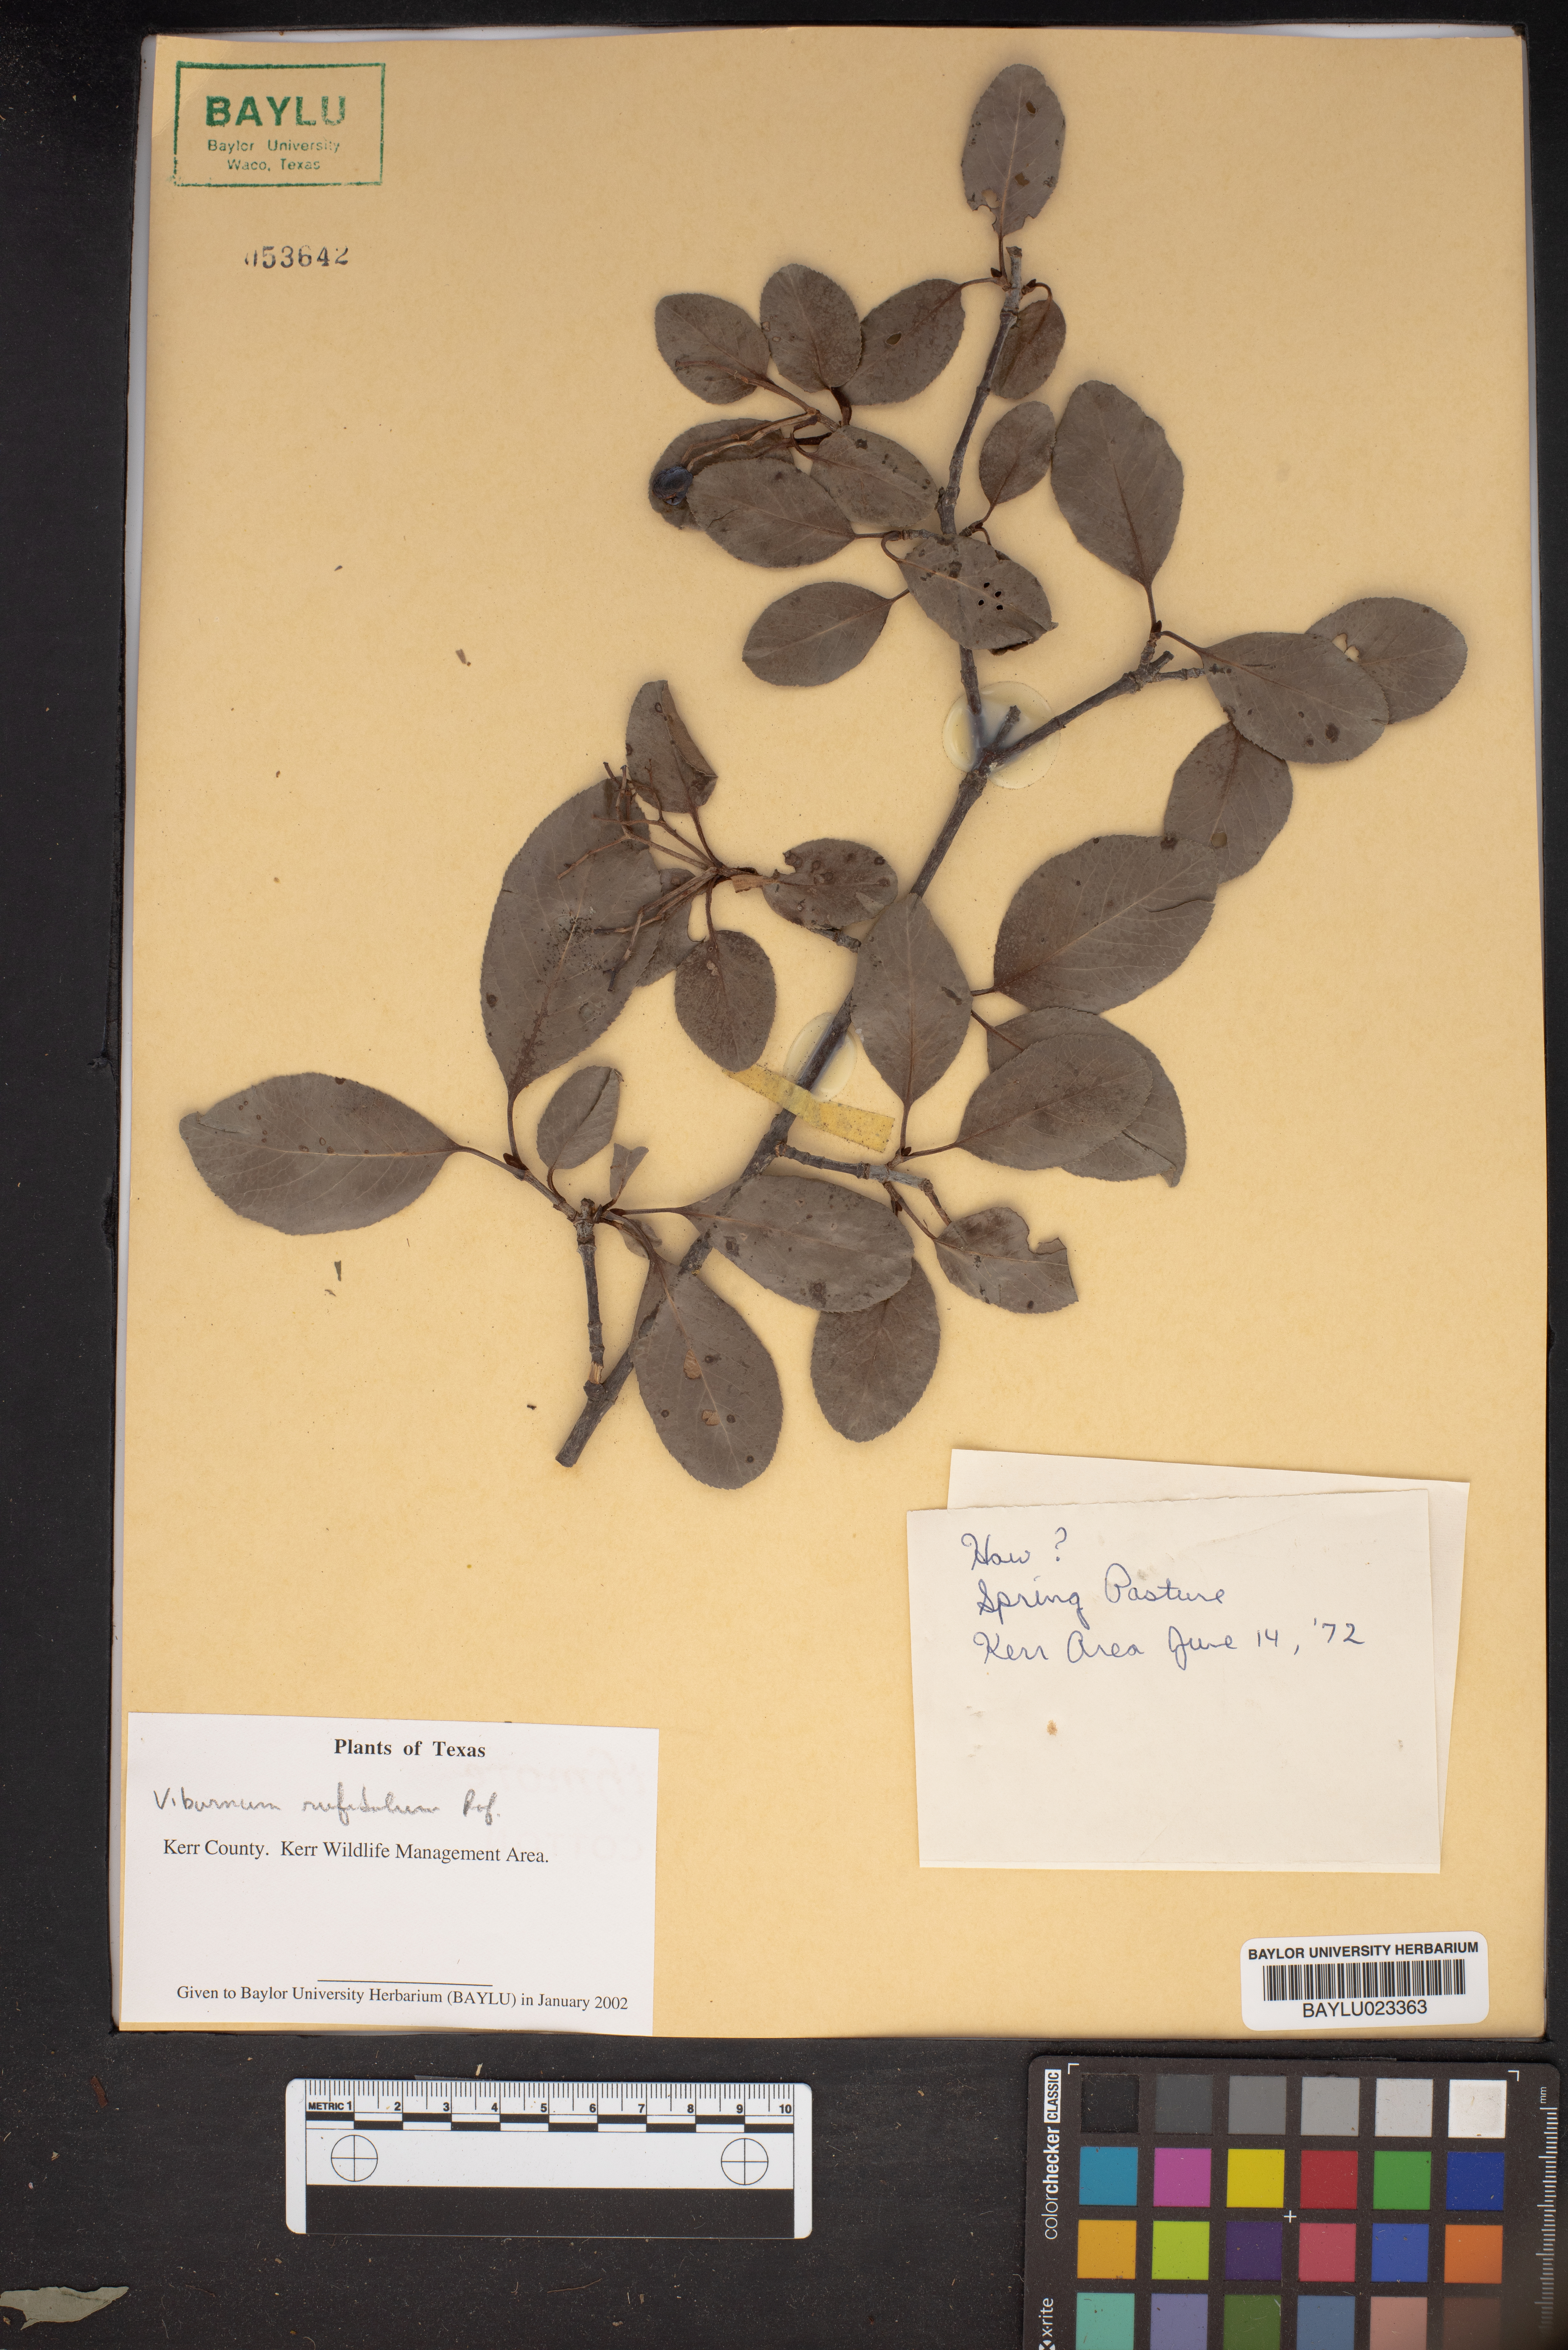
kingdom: Plantae
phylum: Tracheophyta
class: Magnoliopsida
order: Dipsacales
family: Viburnaceae
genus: Viburnum
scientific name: Viburnum rufidulum
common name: Blue haw
